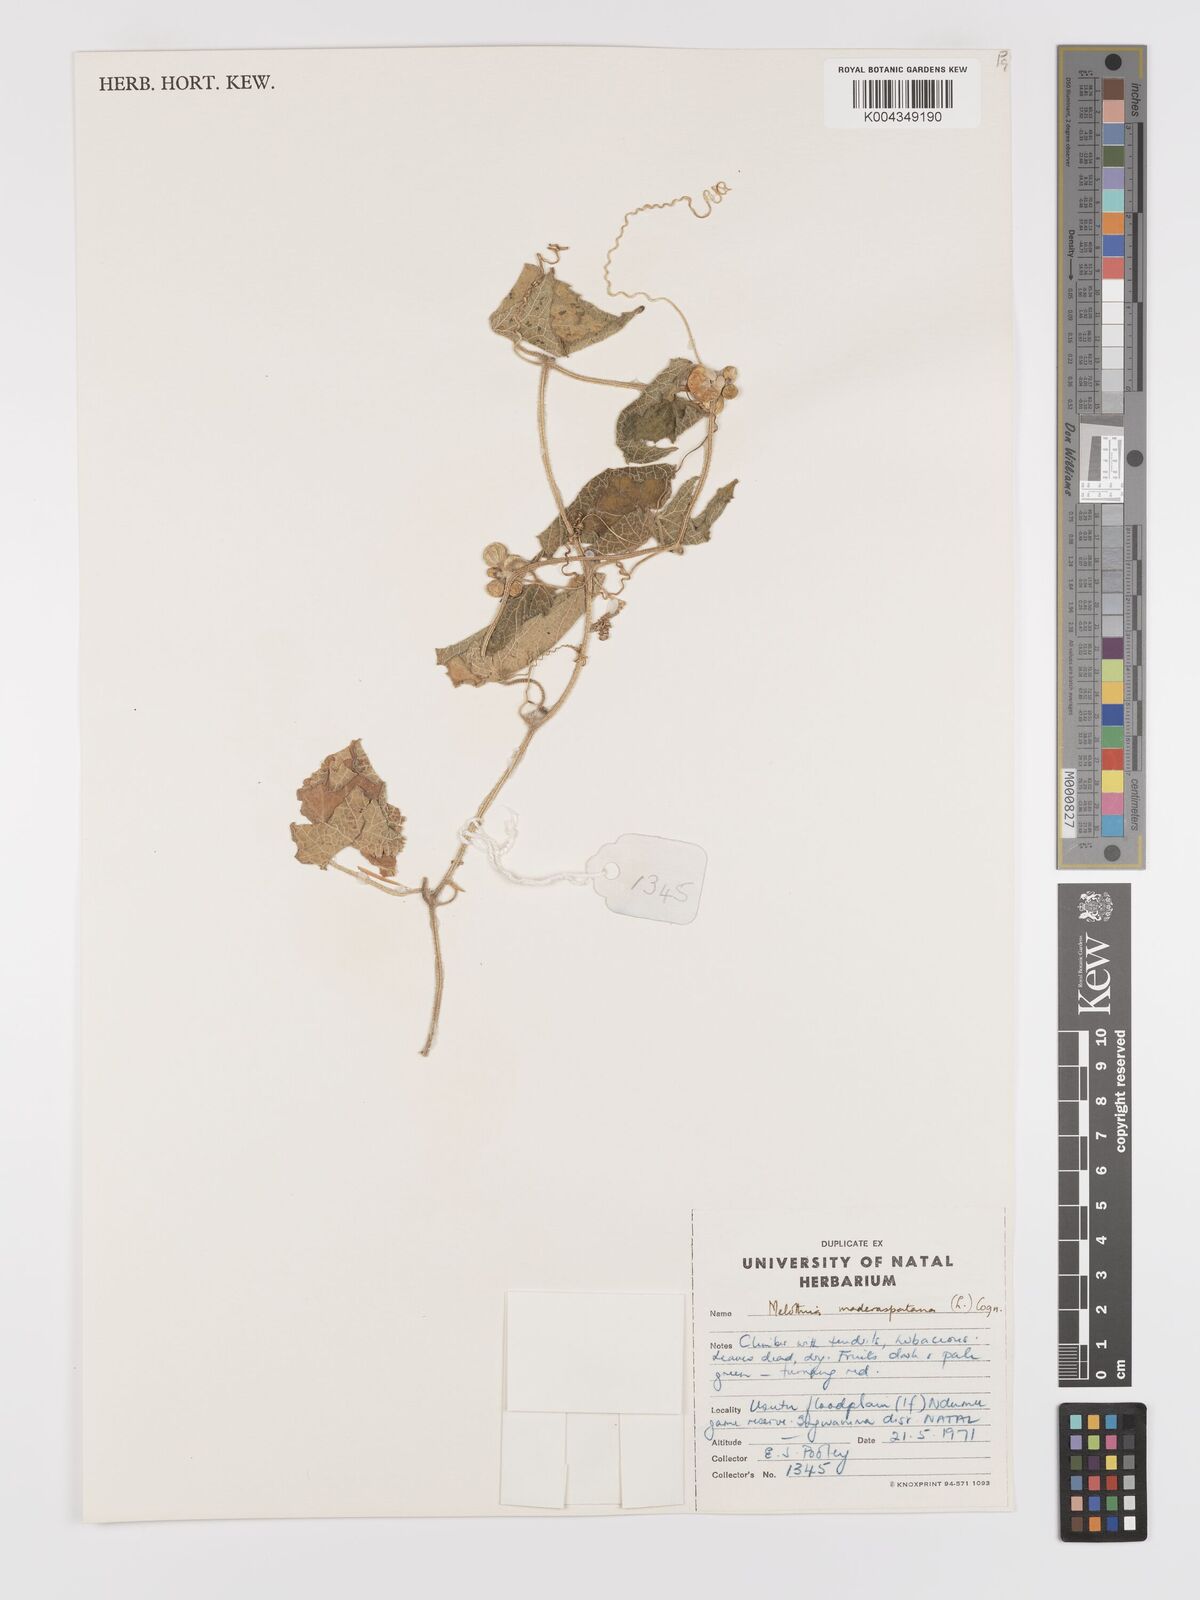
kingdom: Plantae
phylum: Tracheophyta
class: Magnoliopsida
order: Cucurbitales
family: Cucurbitaceae
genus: Cucumis
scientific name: Cucumis maderaspatanus
